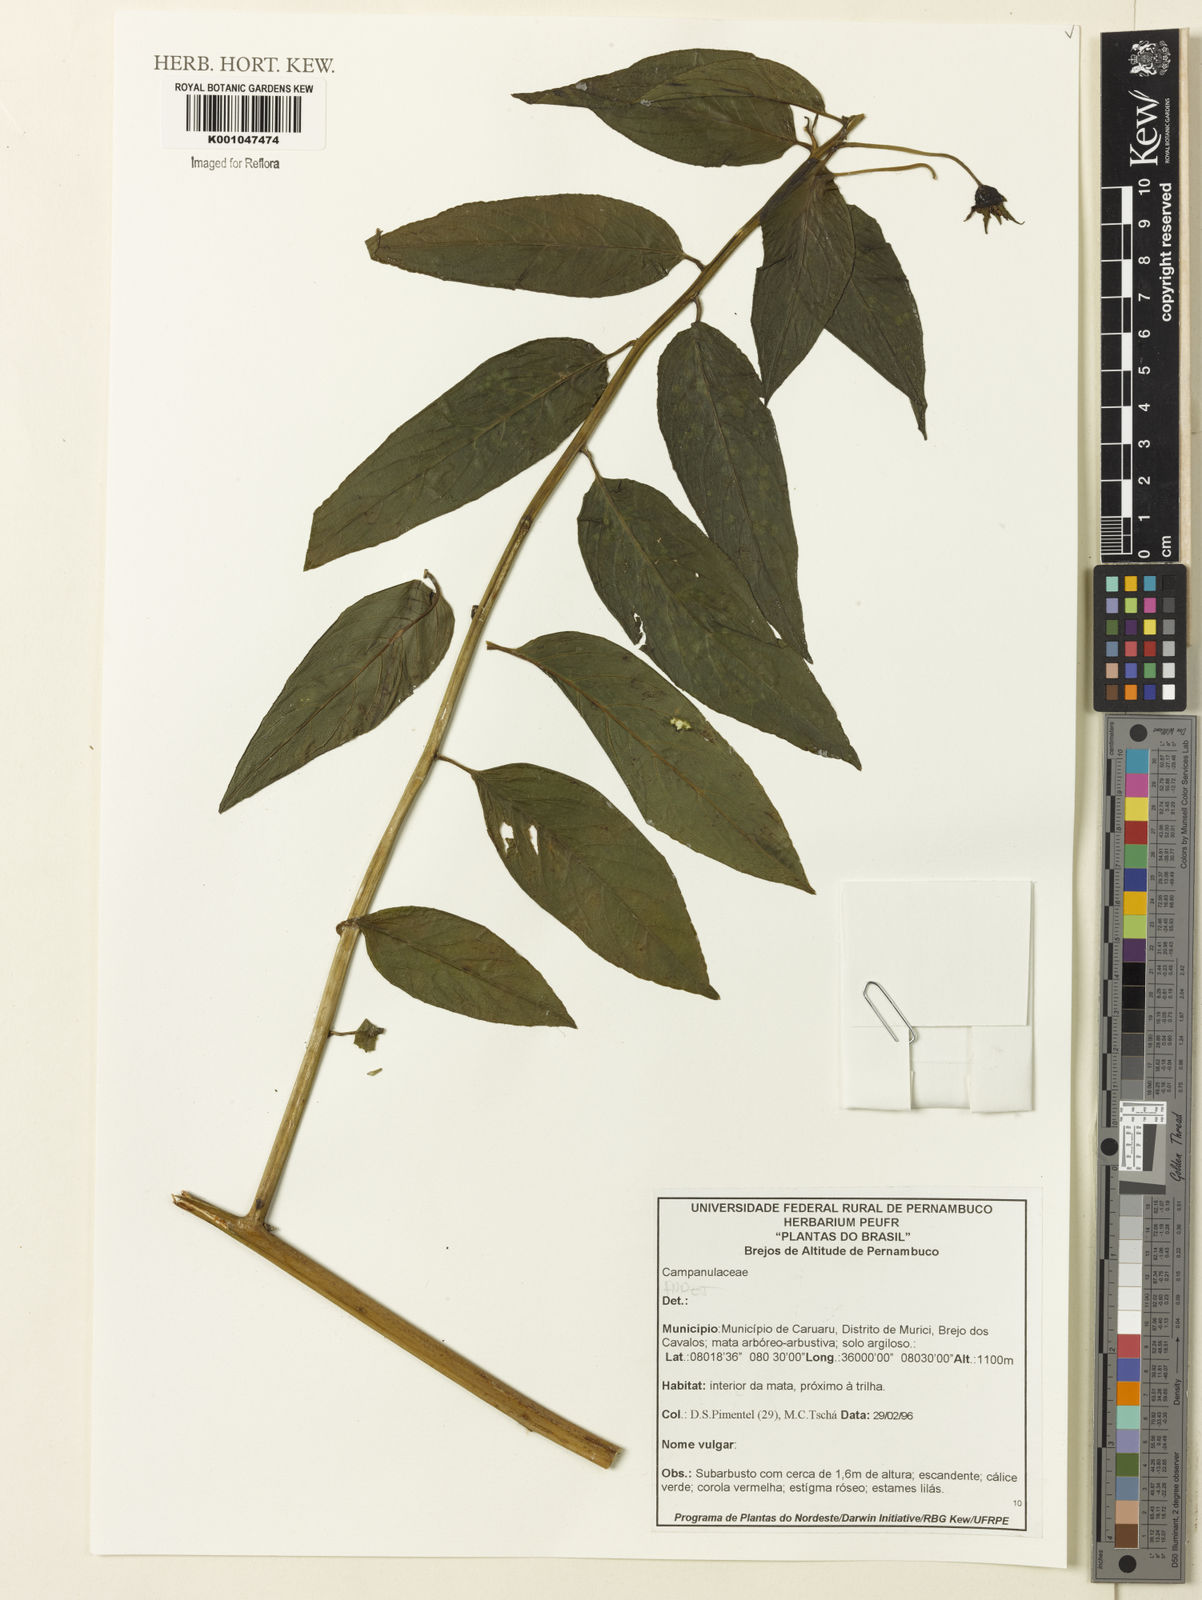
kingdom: Plantae
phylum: Tracheophyta
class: Magnoliopsida
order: Asterales
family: Campanulaceae
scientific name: Campanulaceae
